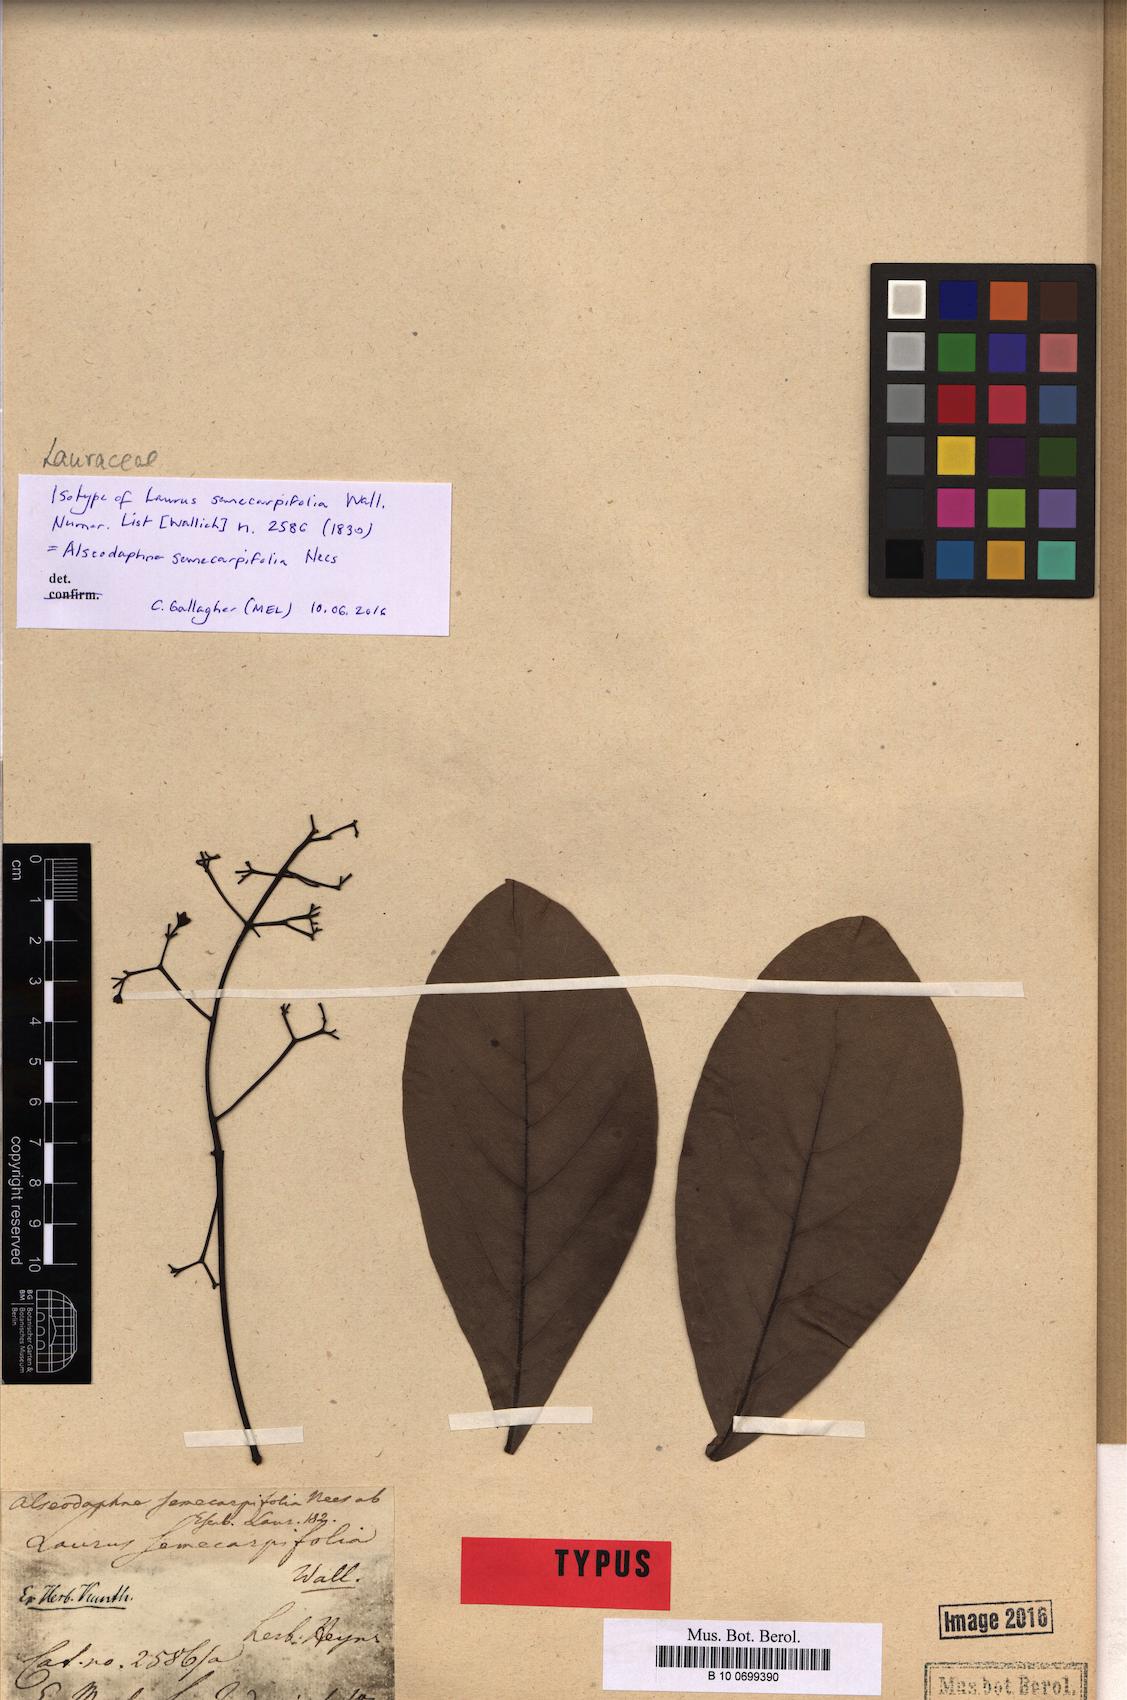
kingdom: Plantae
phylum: Tracheophyta
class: Magnoliopsida
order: Laurales
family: Lauraceae
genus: Alseodaphne
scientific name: Alseodaphne semecarpifolia
